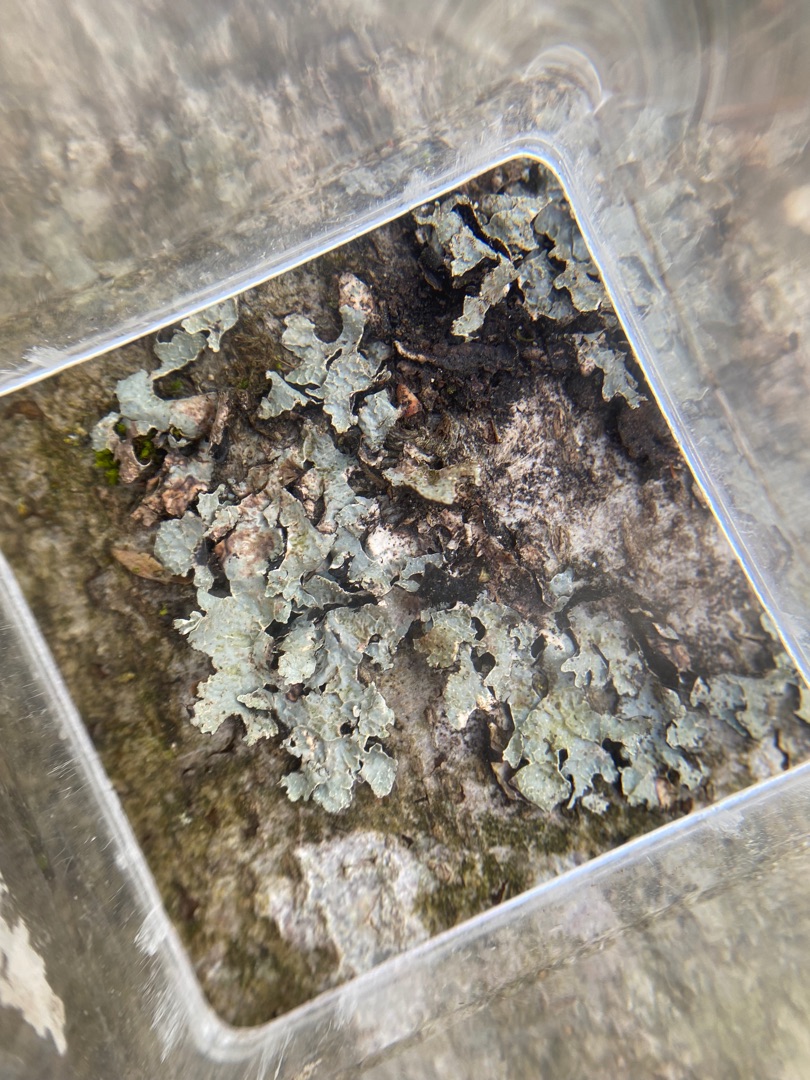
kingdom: Fungi
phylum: Ascomycota
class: Lecanoromycetes
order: Lecanorales
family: Parmeliaceae
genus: Parmelia
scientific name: Parmelia sulcata
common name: Rynket skållav
